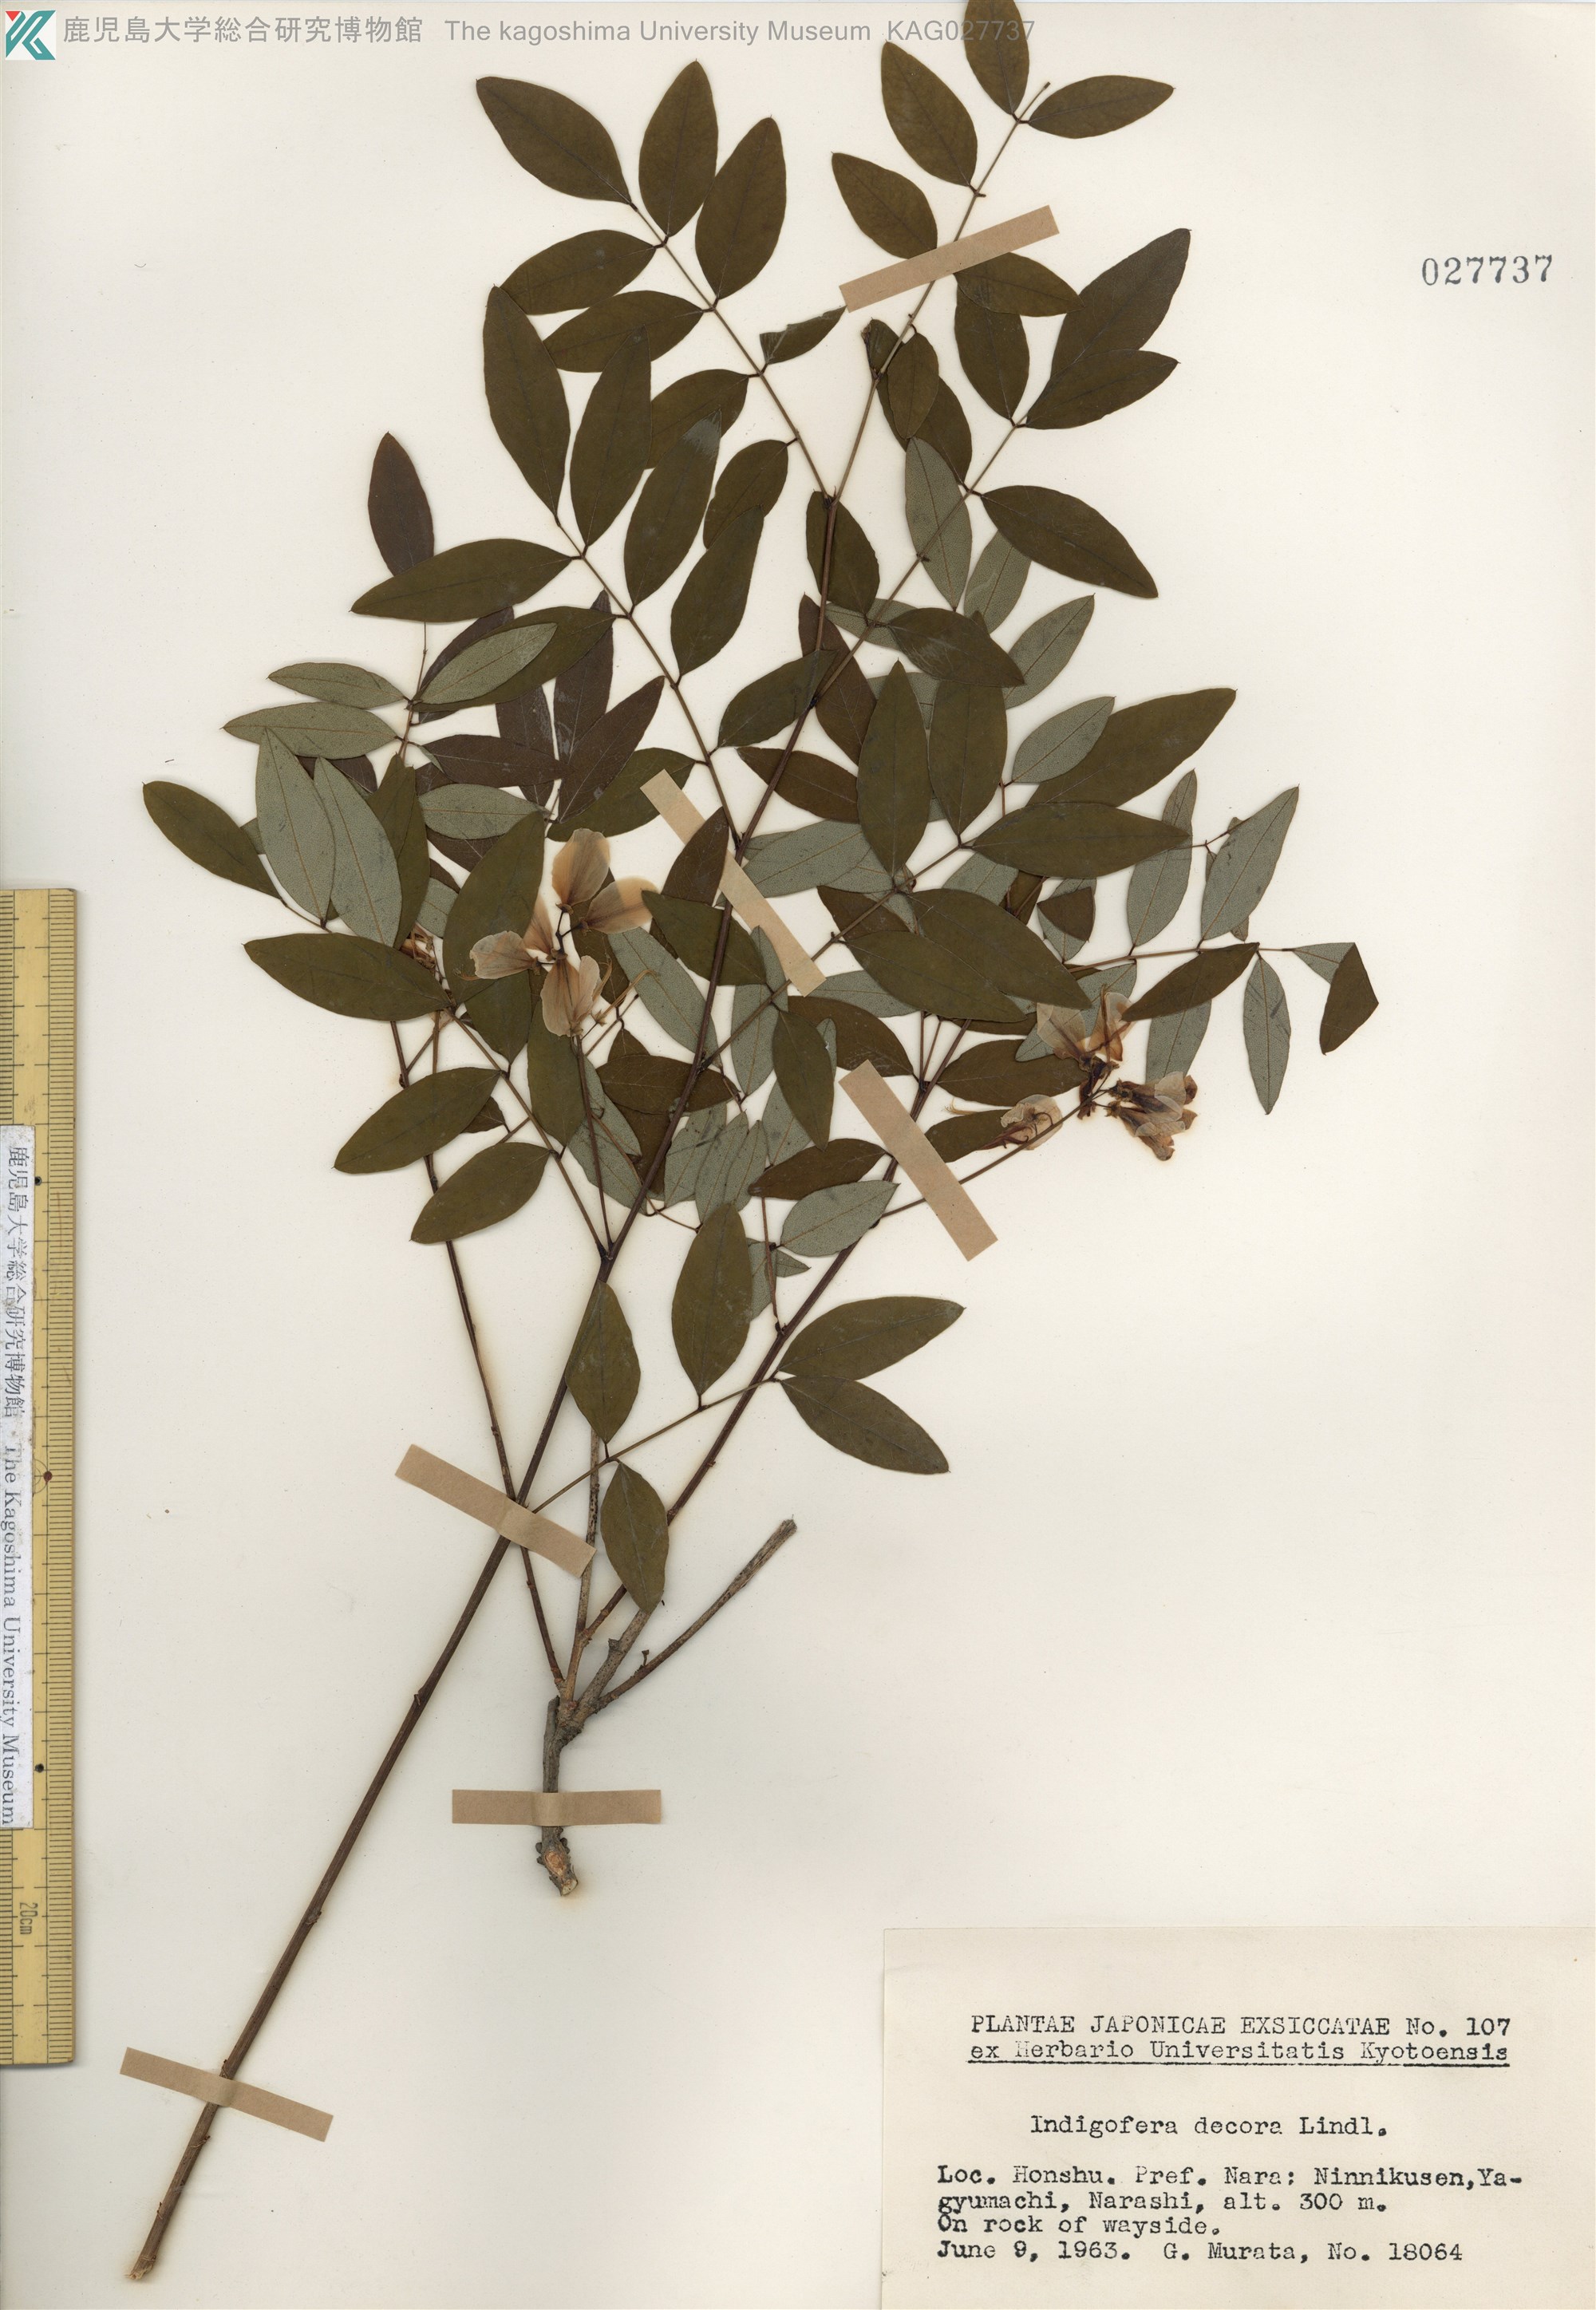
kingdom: Plantae
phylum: Tracheophyta
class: Magnoliopsida
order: Fabales
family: Fabaceae
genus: Indigofera
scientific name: Indigofera incarnata
